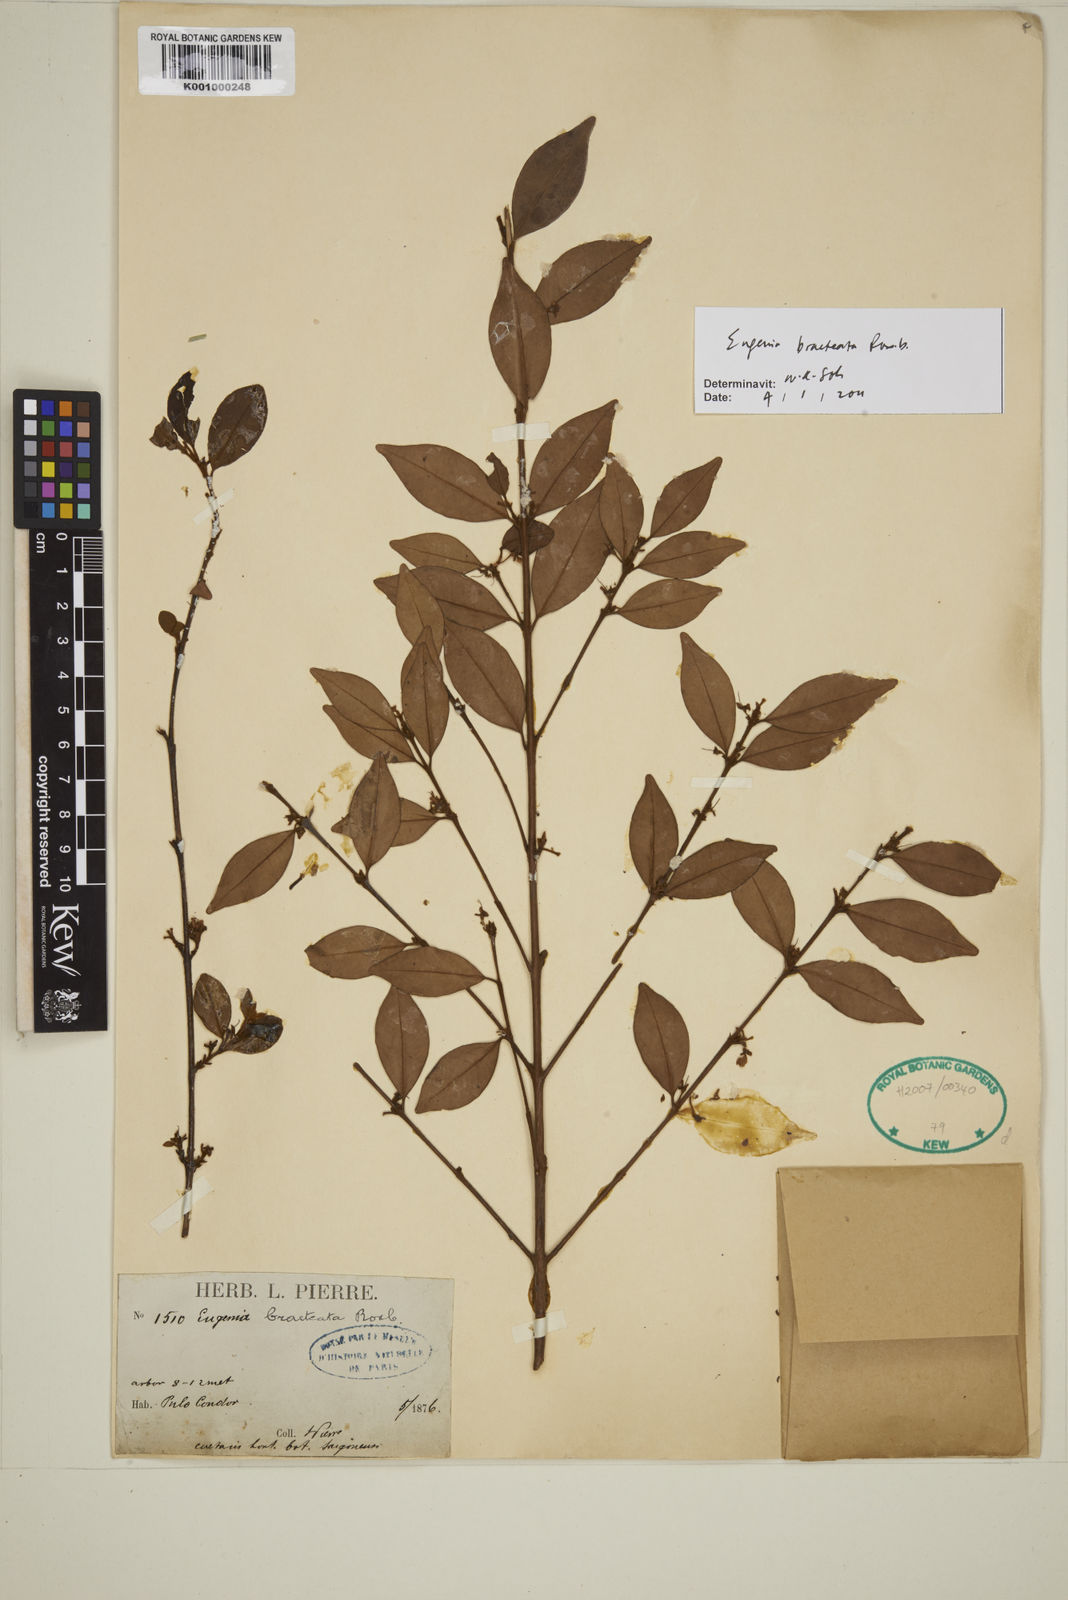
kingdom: Plantae
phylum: Tracheophyta
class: Magnoliopsida
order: Myrtales
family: Myrtaceae
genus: Myrcia
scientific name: Myrcia bracteata
